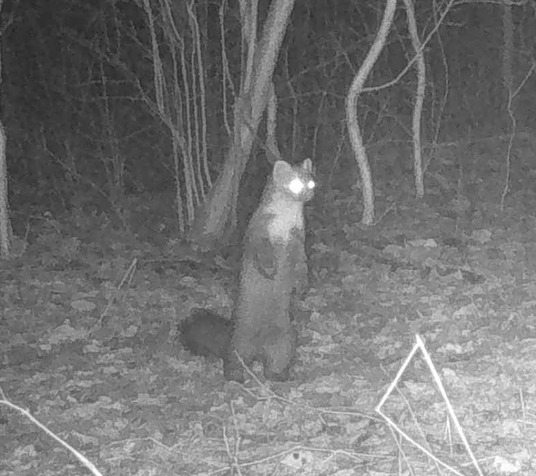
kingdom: Animalia
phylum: Chordata
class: Mammalia
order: Carnivora
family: Mustelidae
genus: Martes
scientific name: Martes martes
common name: Skovmår
